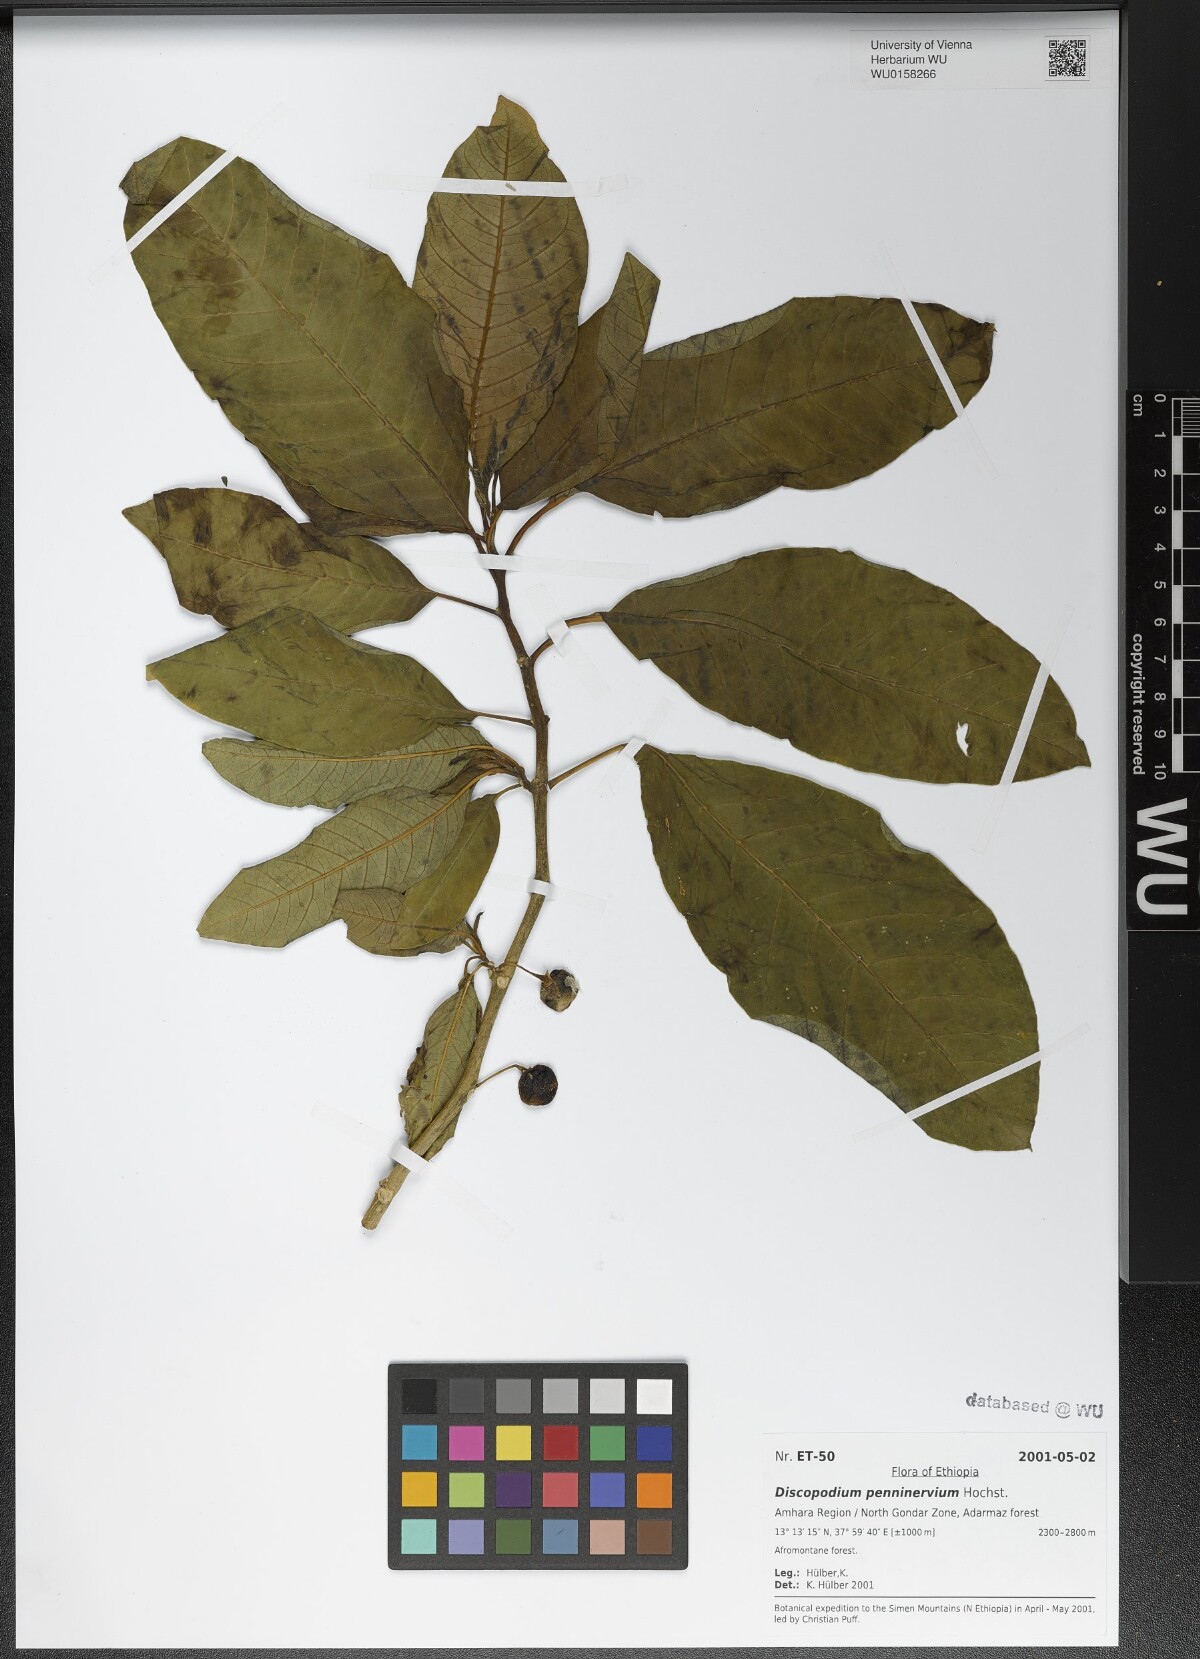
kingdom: Plantae
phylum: Tracheophyta
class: Magnoliopsida
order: Solanales
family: Solanaceae
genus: Discopodium
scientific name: Discopodium penninervium
